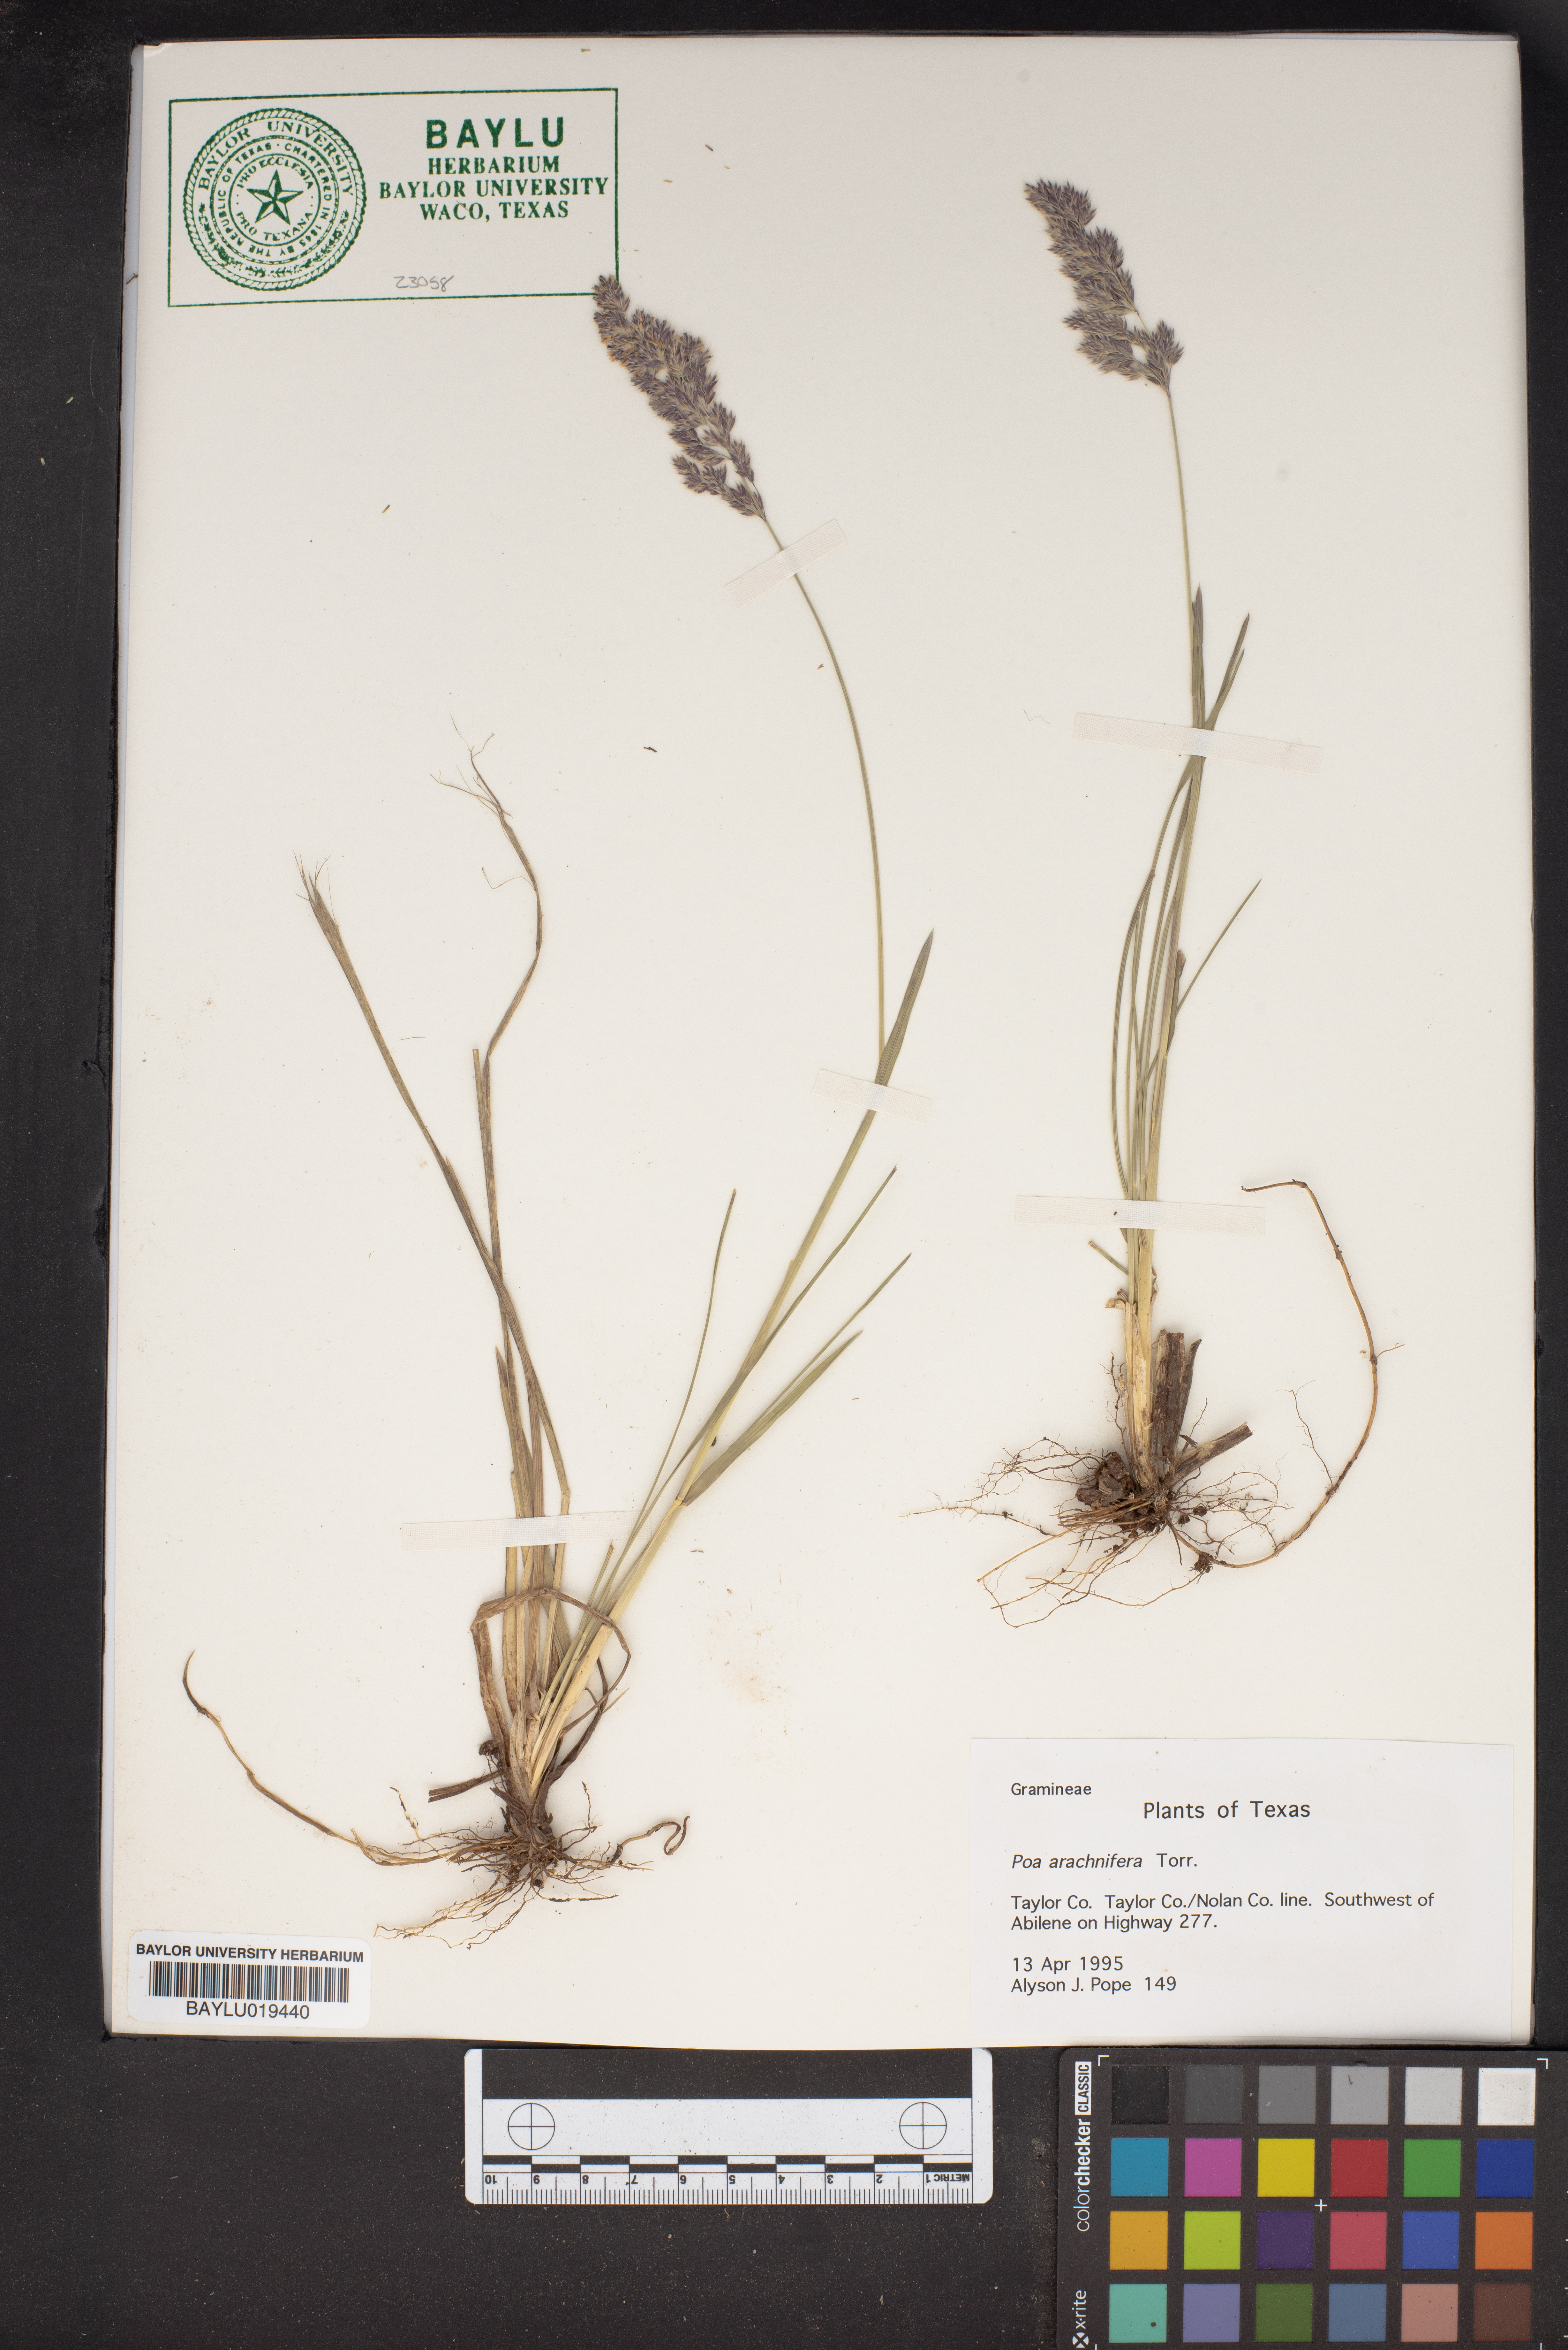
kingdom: Plantae
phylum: Tracheophyta
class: Liliopsida
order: Poales
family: Poaceae
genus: Poa
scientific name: Poa arachnifera
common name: Texas bluegrass
